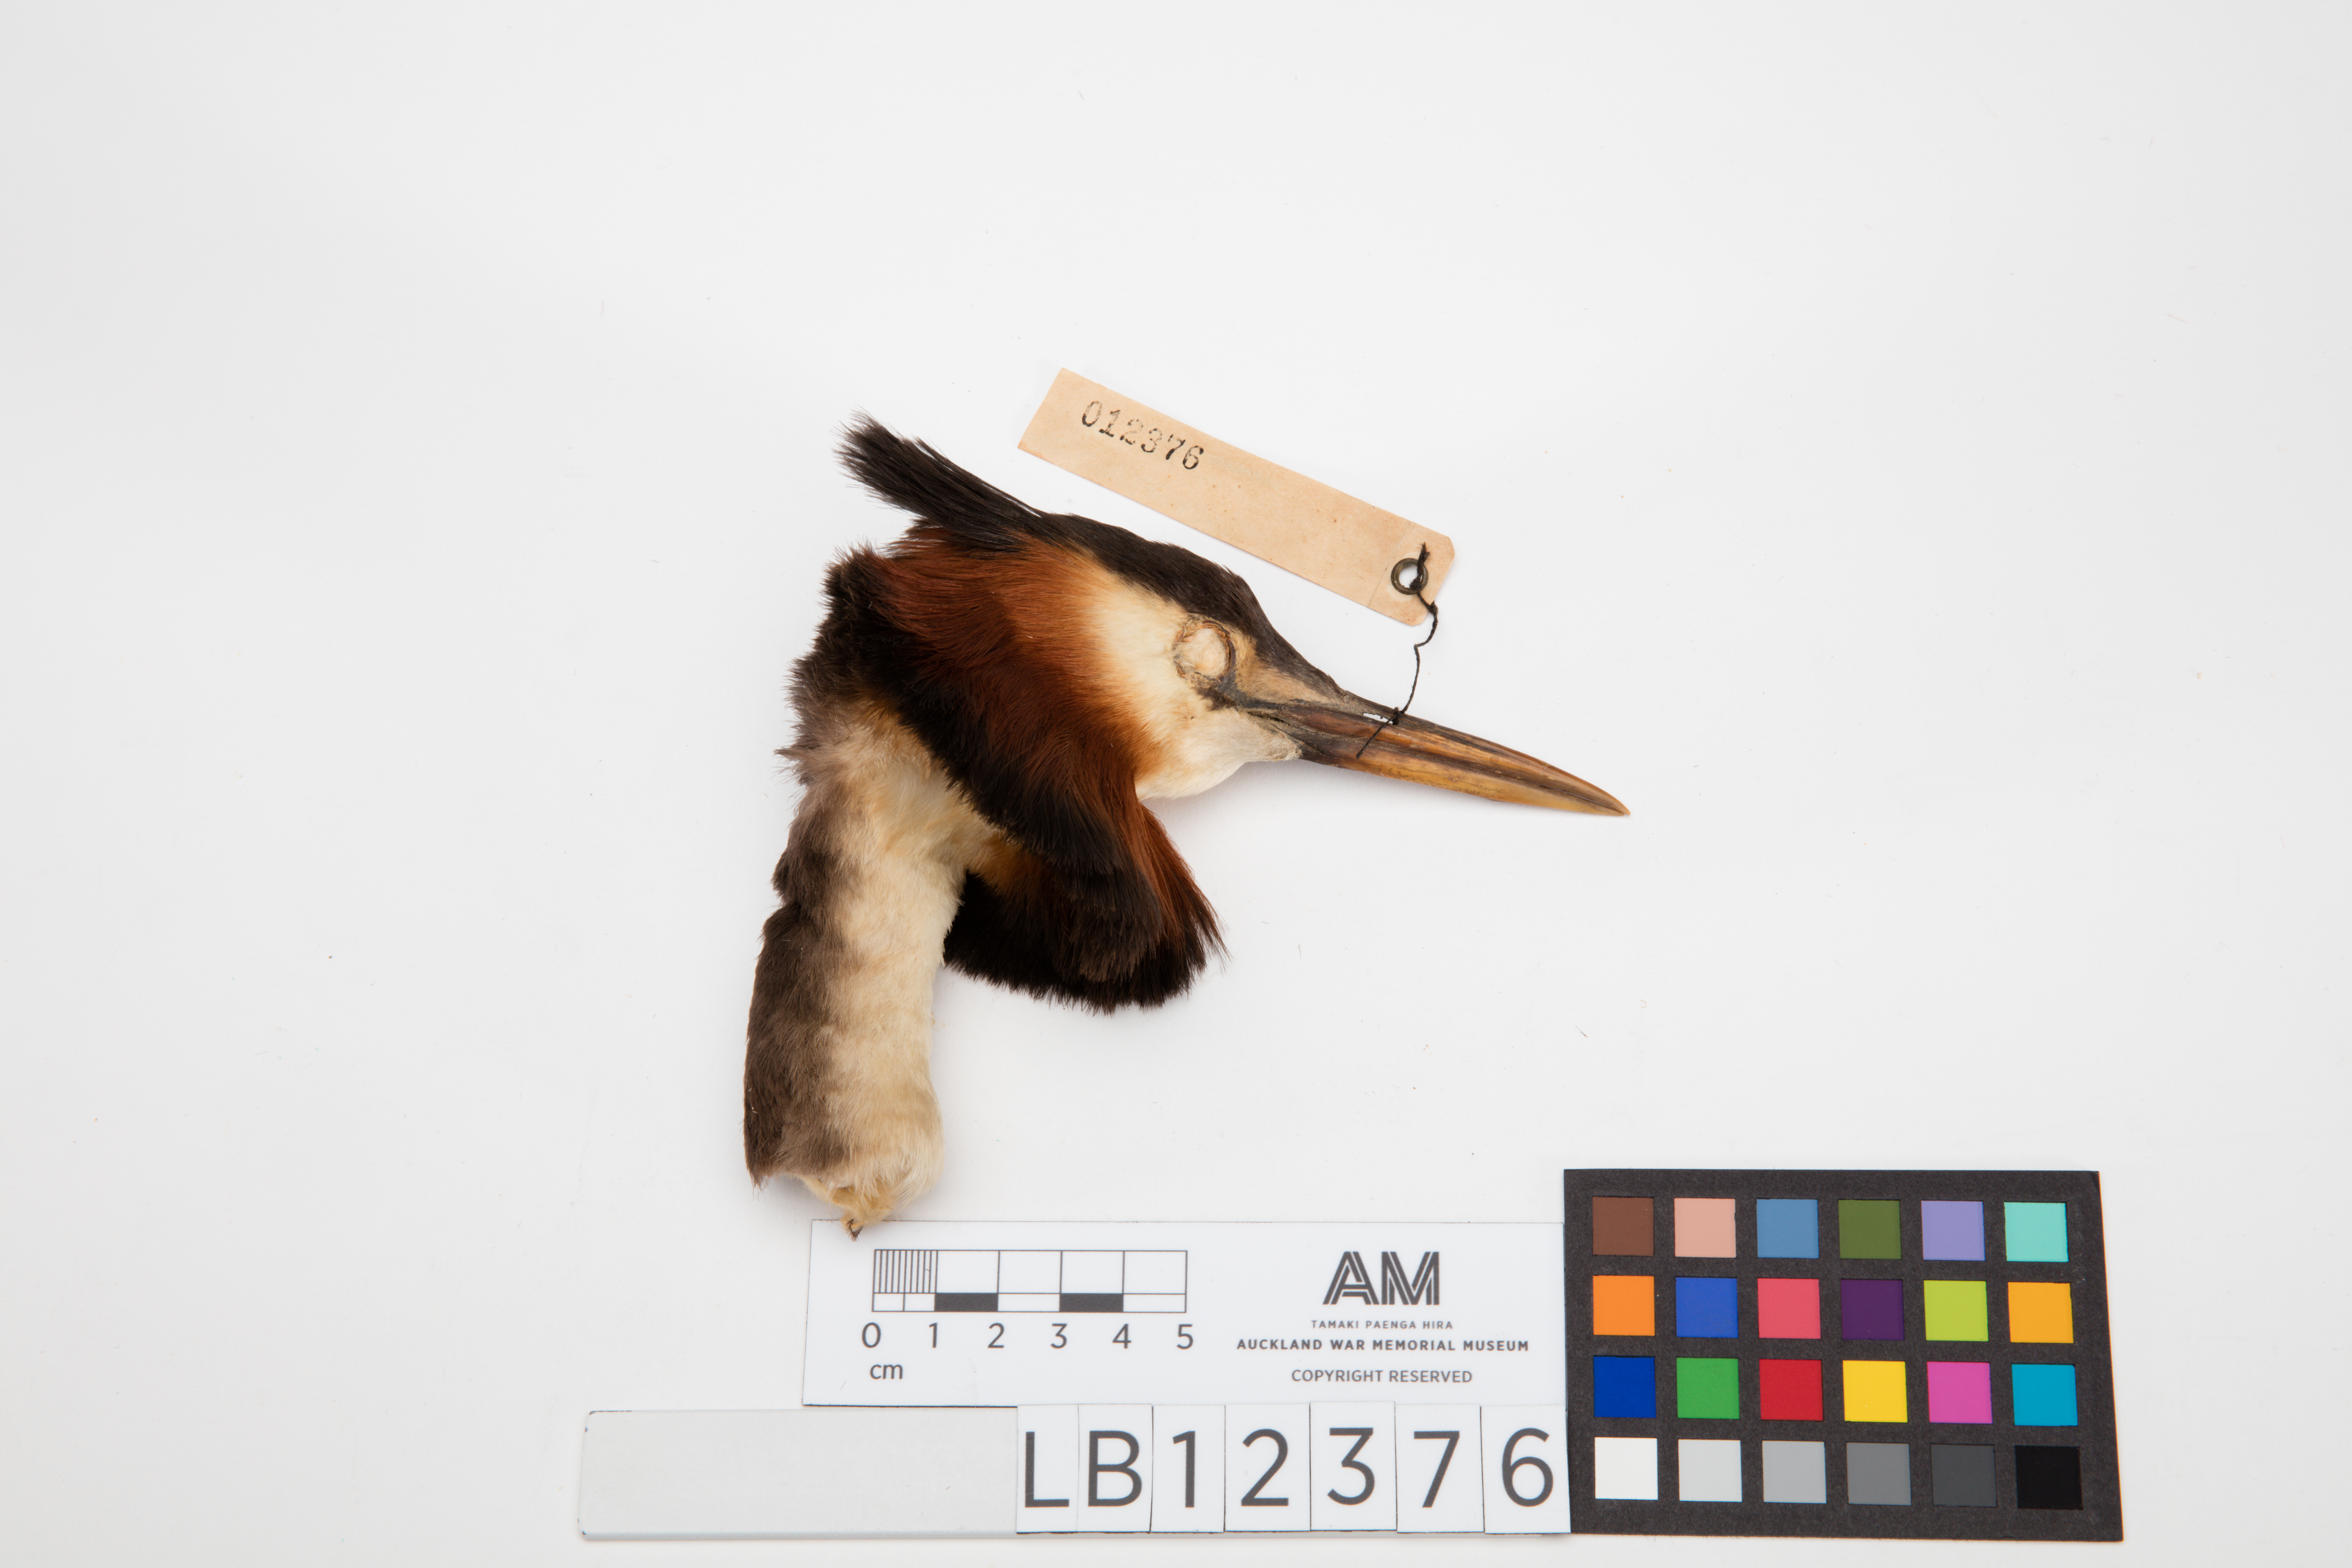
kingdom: Animalia
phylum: Chordata
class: Aves
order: Podicipediformes
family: Podicipedidae
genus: Podiceps
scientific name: Podiceps cristatus
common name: Great crested grebe
